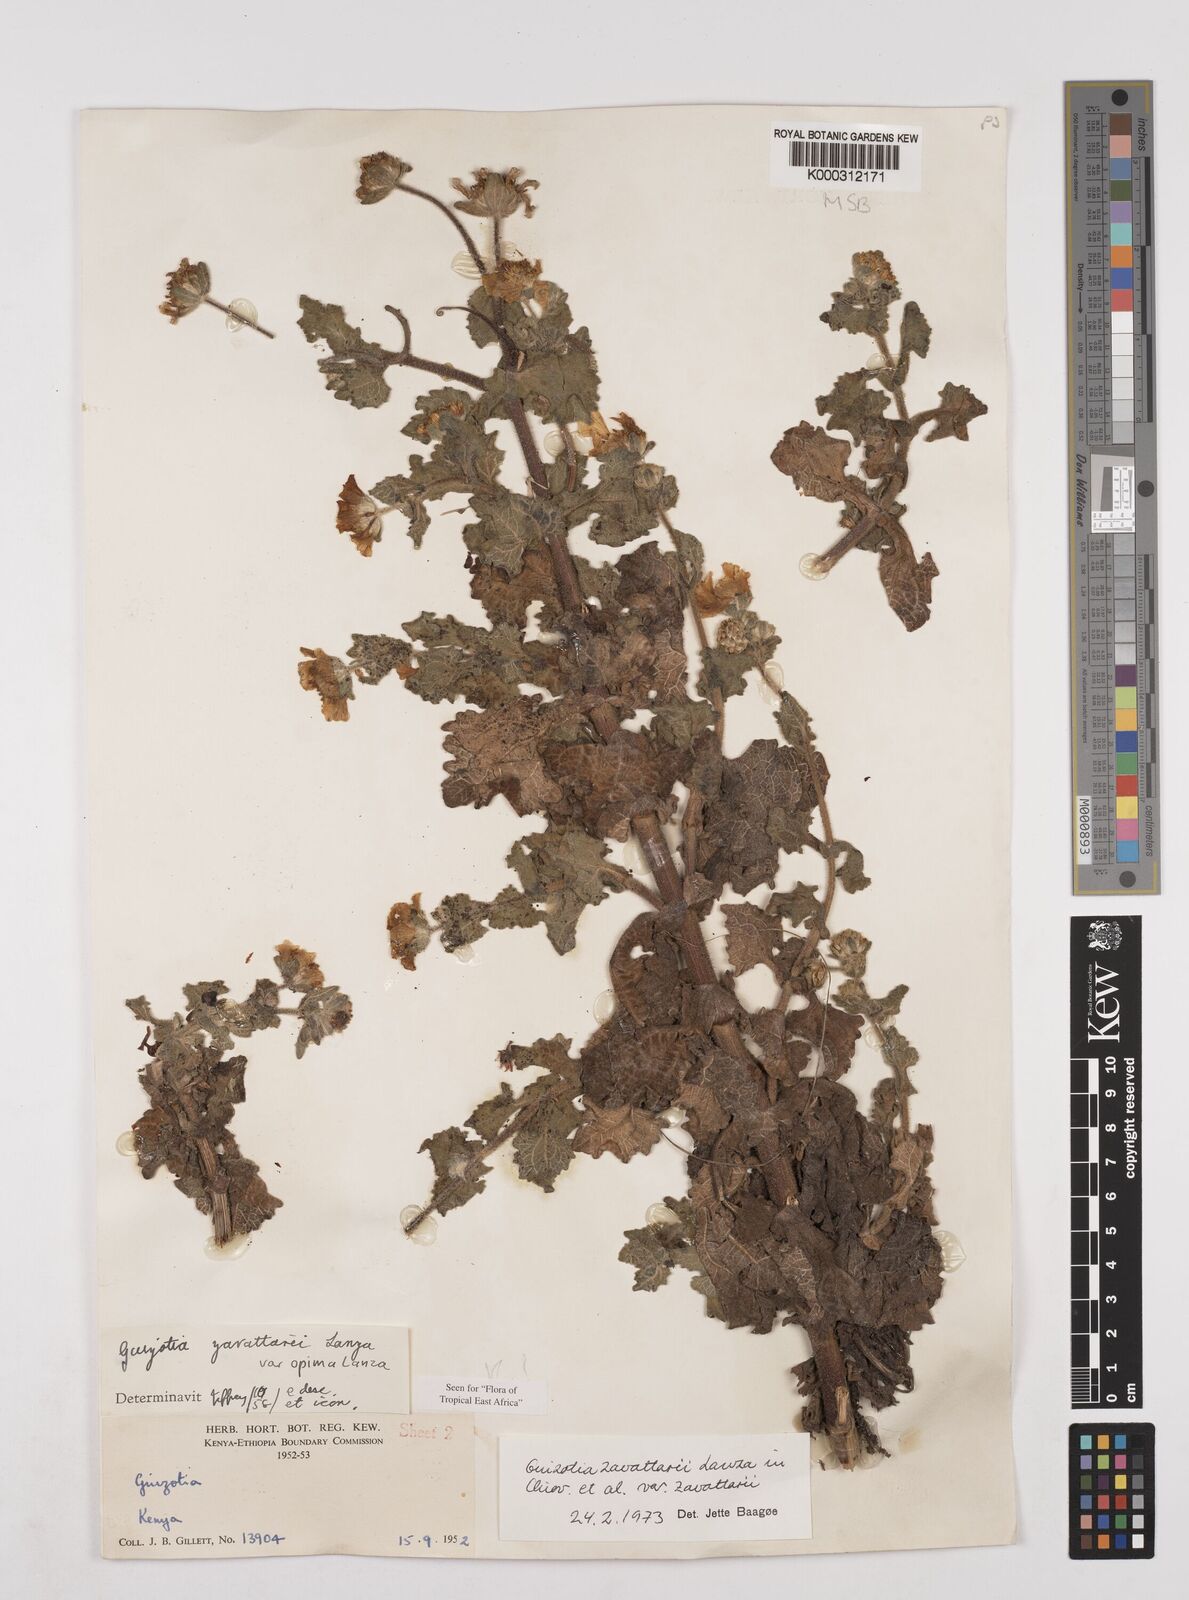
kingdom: Plantae
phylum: Tracheophyta
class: Magnoliopsida
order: Asterales
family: Asteraceae
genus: Guizotia
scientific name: Guizotia zavattarii
